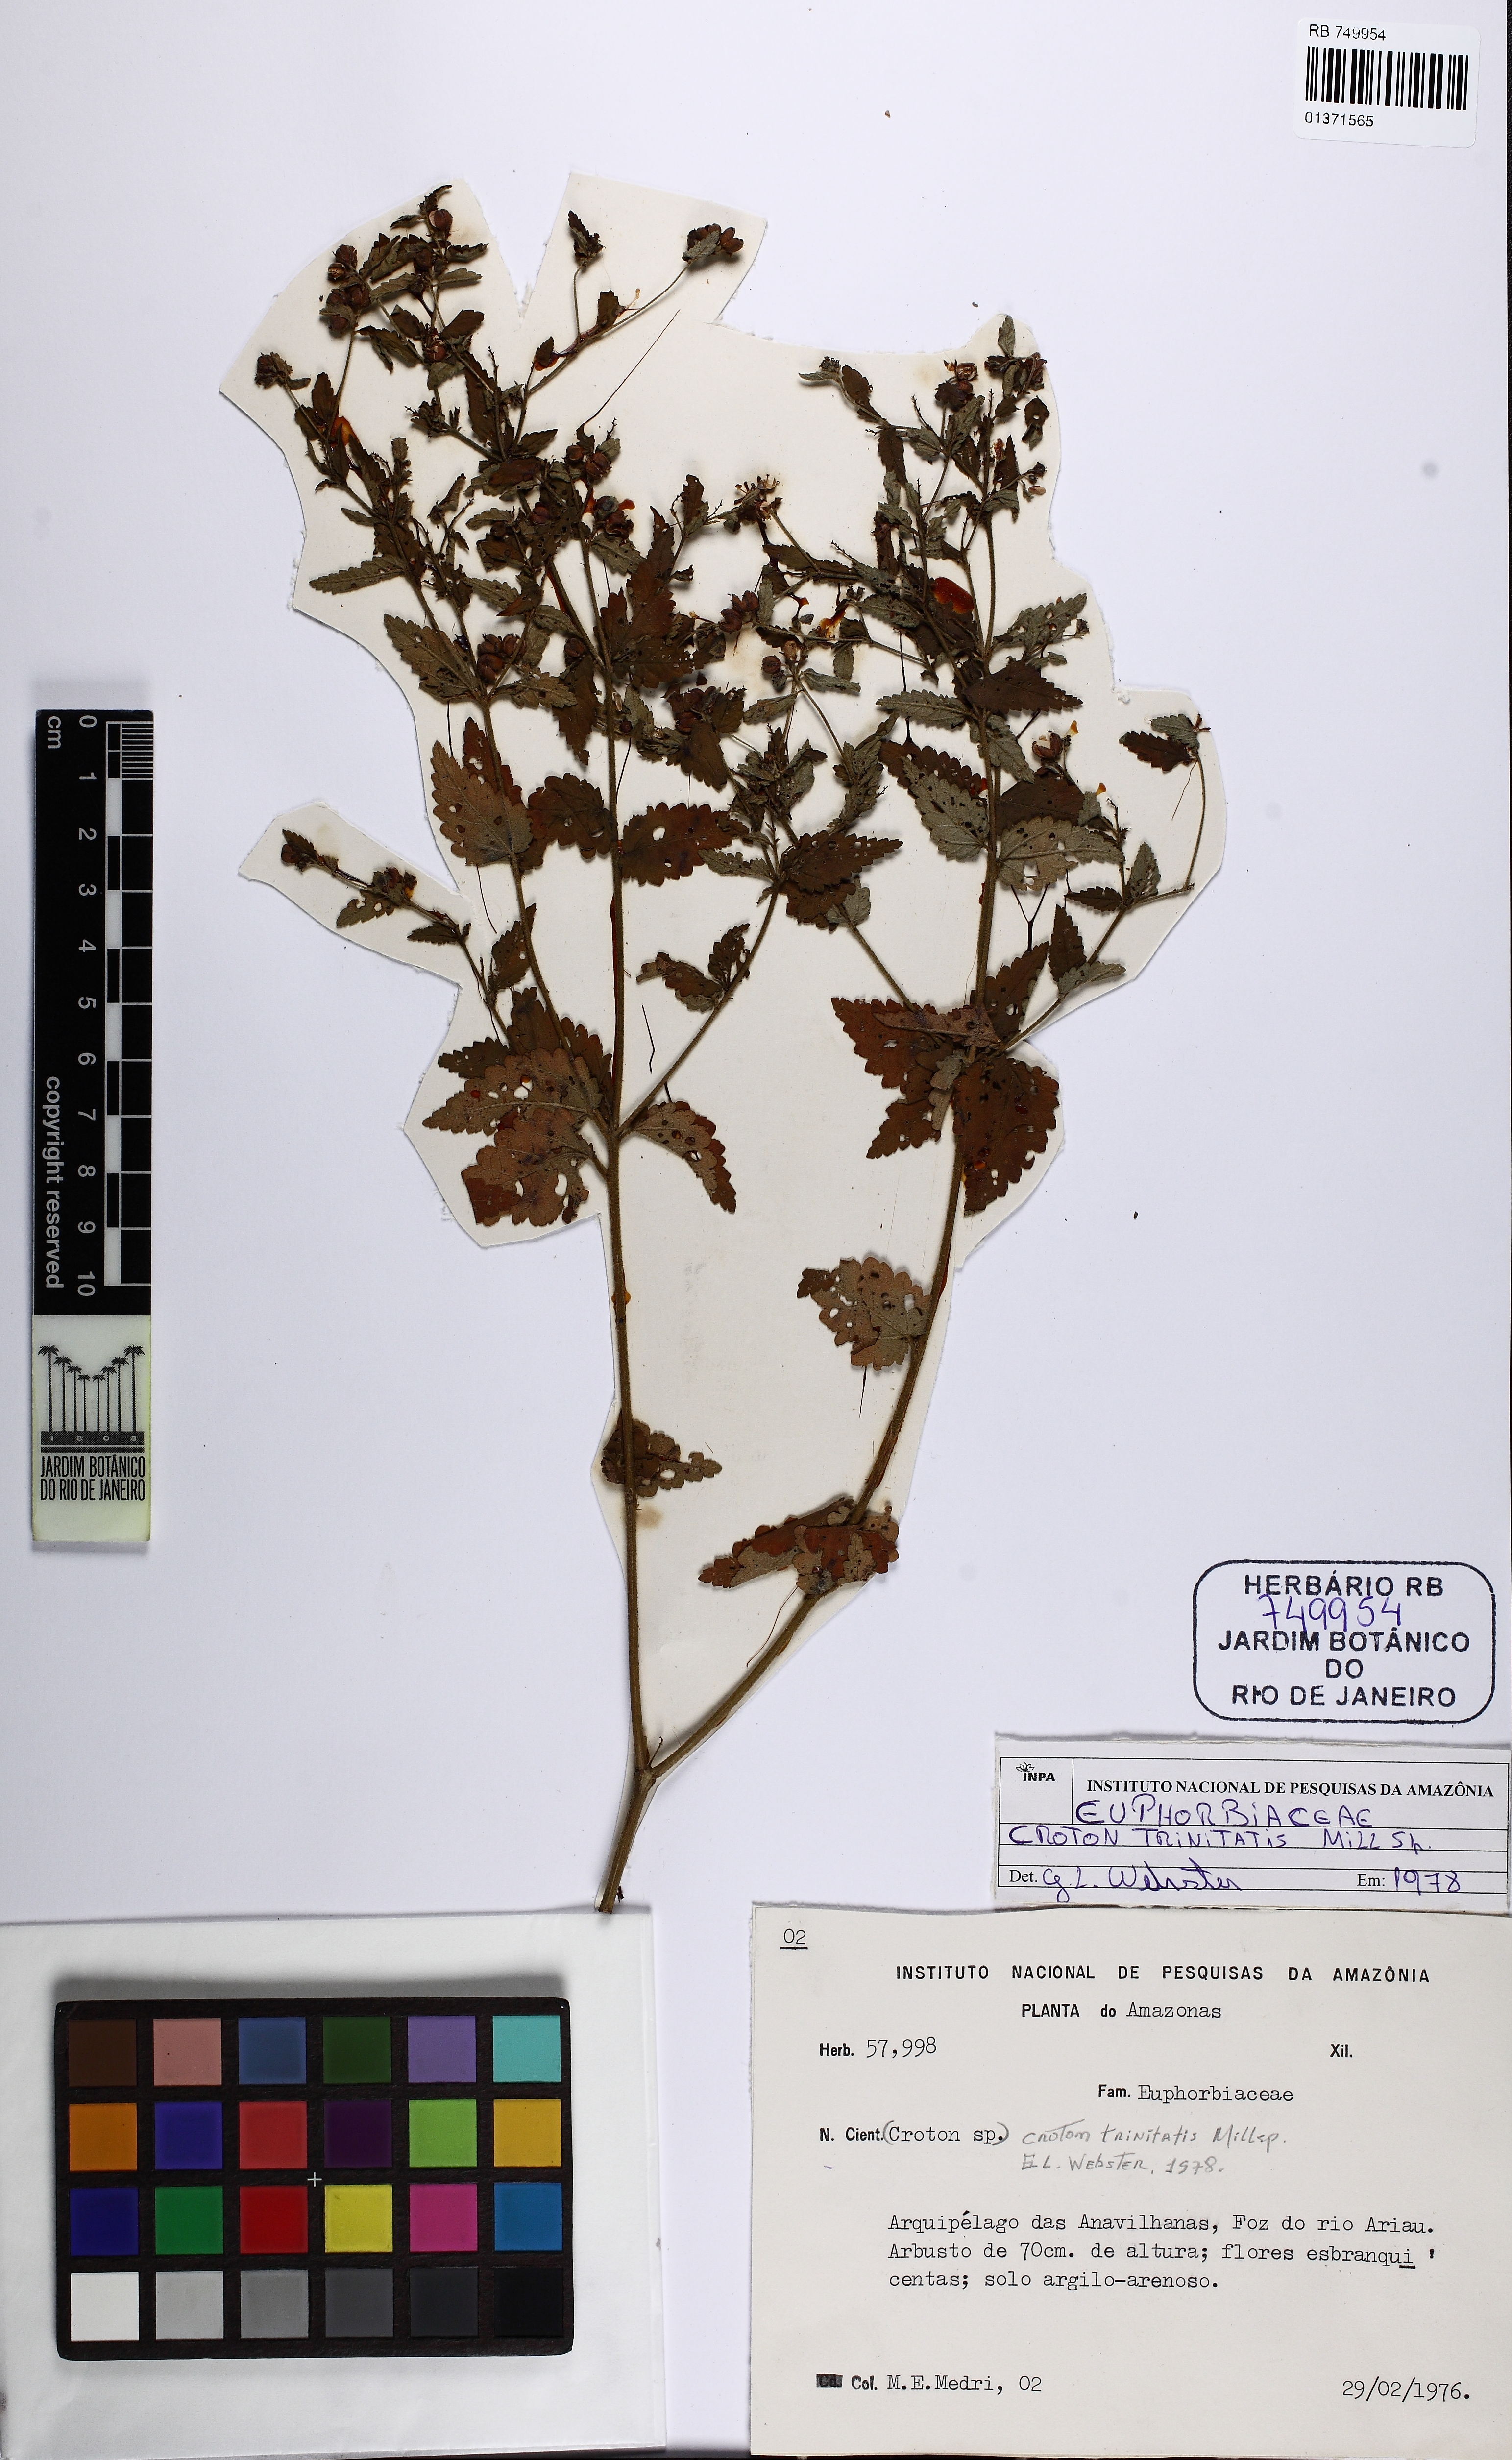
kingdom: Plantae
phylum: Tracheophyta
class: Magnoliopsida
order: Malpighiales
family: Euphorbiaceae
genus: Croton
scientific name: Croton trinitatis
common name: Roadside croton
